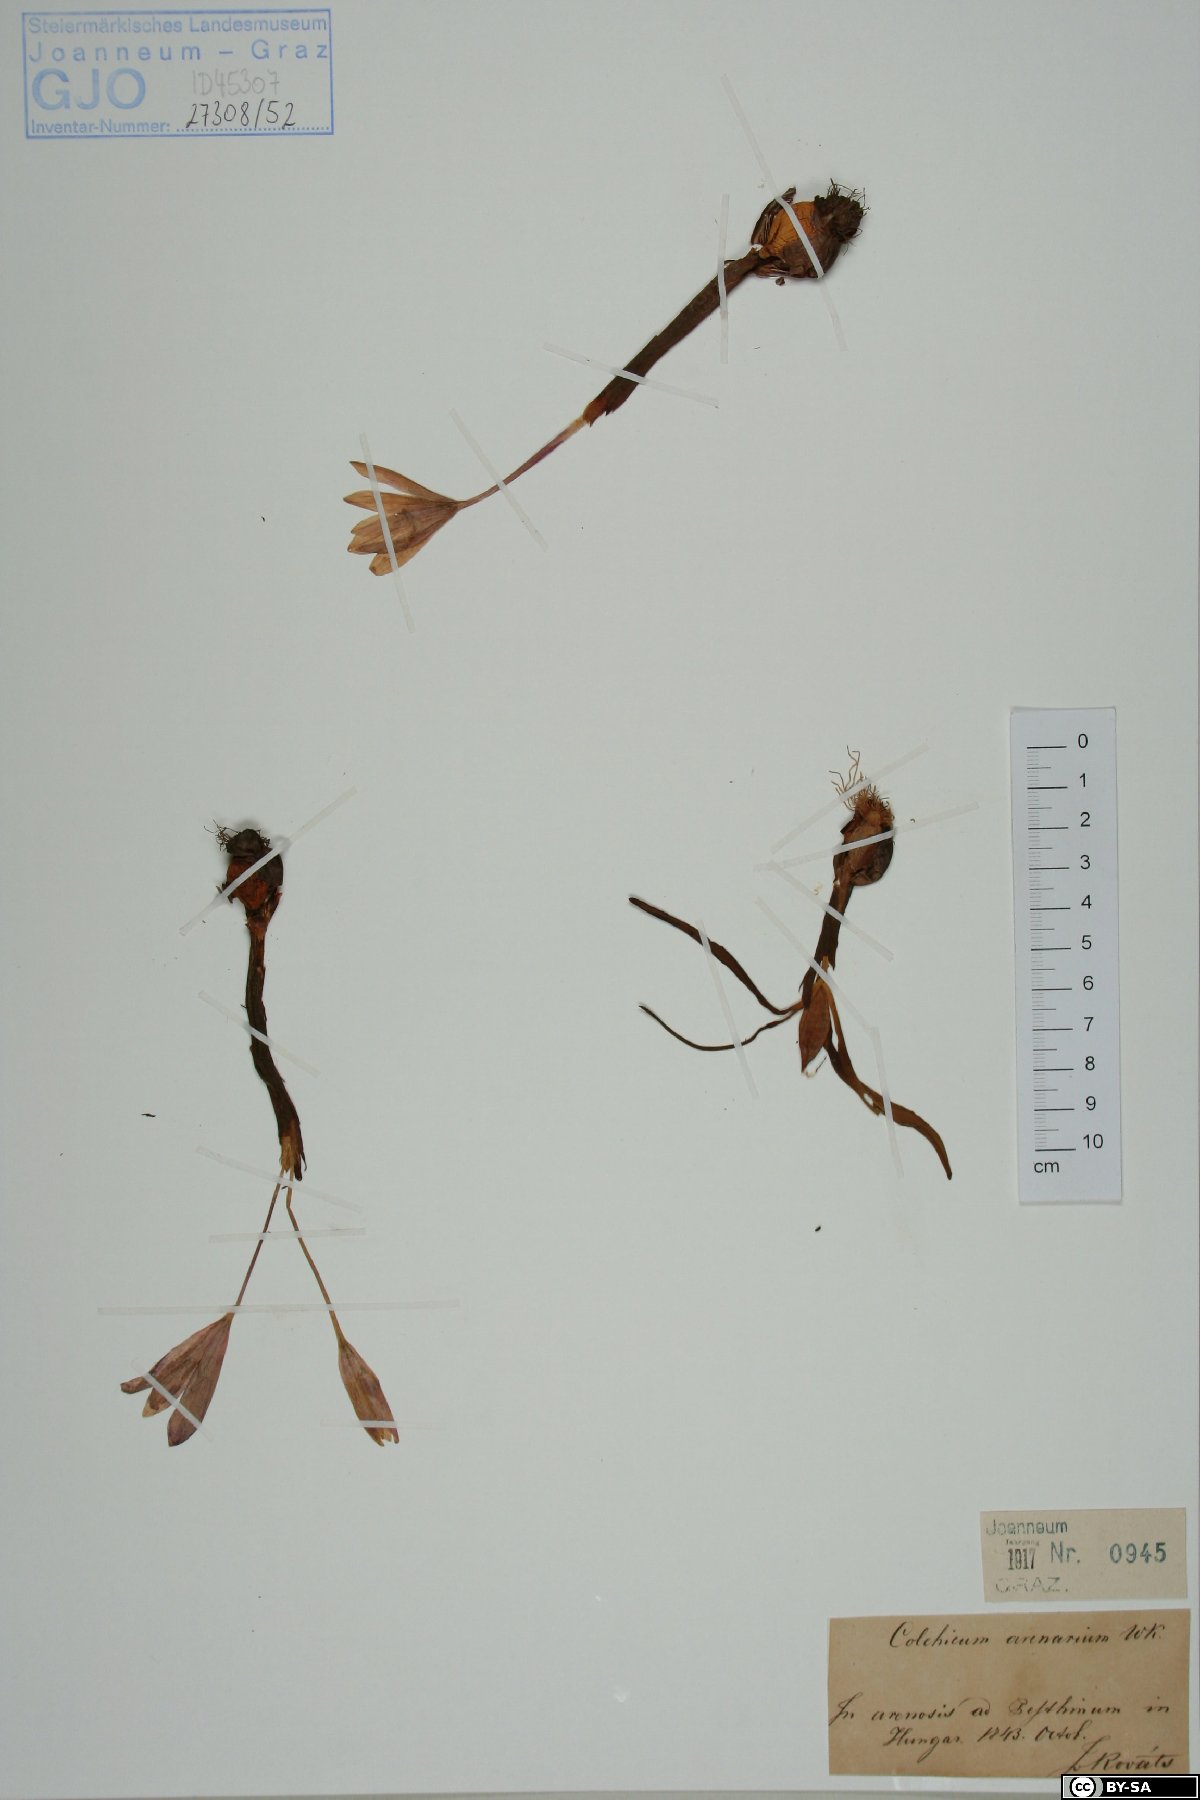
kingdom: Plantae
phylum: Tracheophyta
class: Liliopsida
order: Liliales
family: Colchicaceae
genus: Colchicum
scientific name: Colchicum arenarium
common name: Sand saffron
